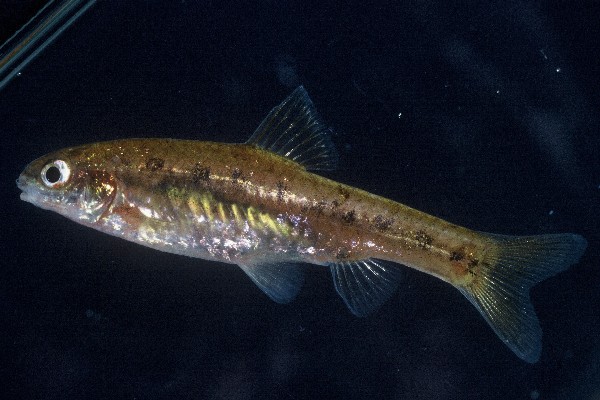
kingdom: Animalia
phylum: Chordata
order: Cypriniformes
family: Cyprinidae
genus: Enteromius
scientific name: Enteromius neefi
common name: Sidespot barb
